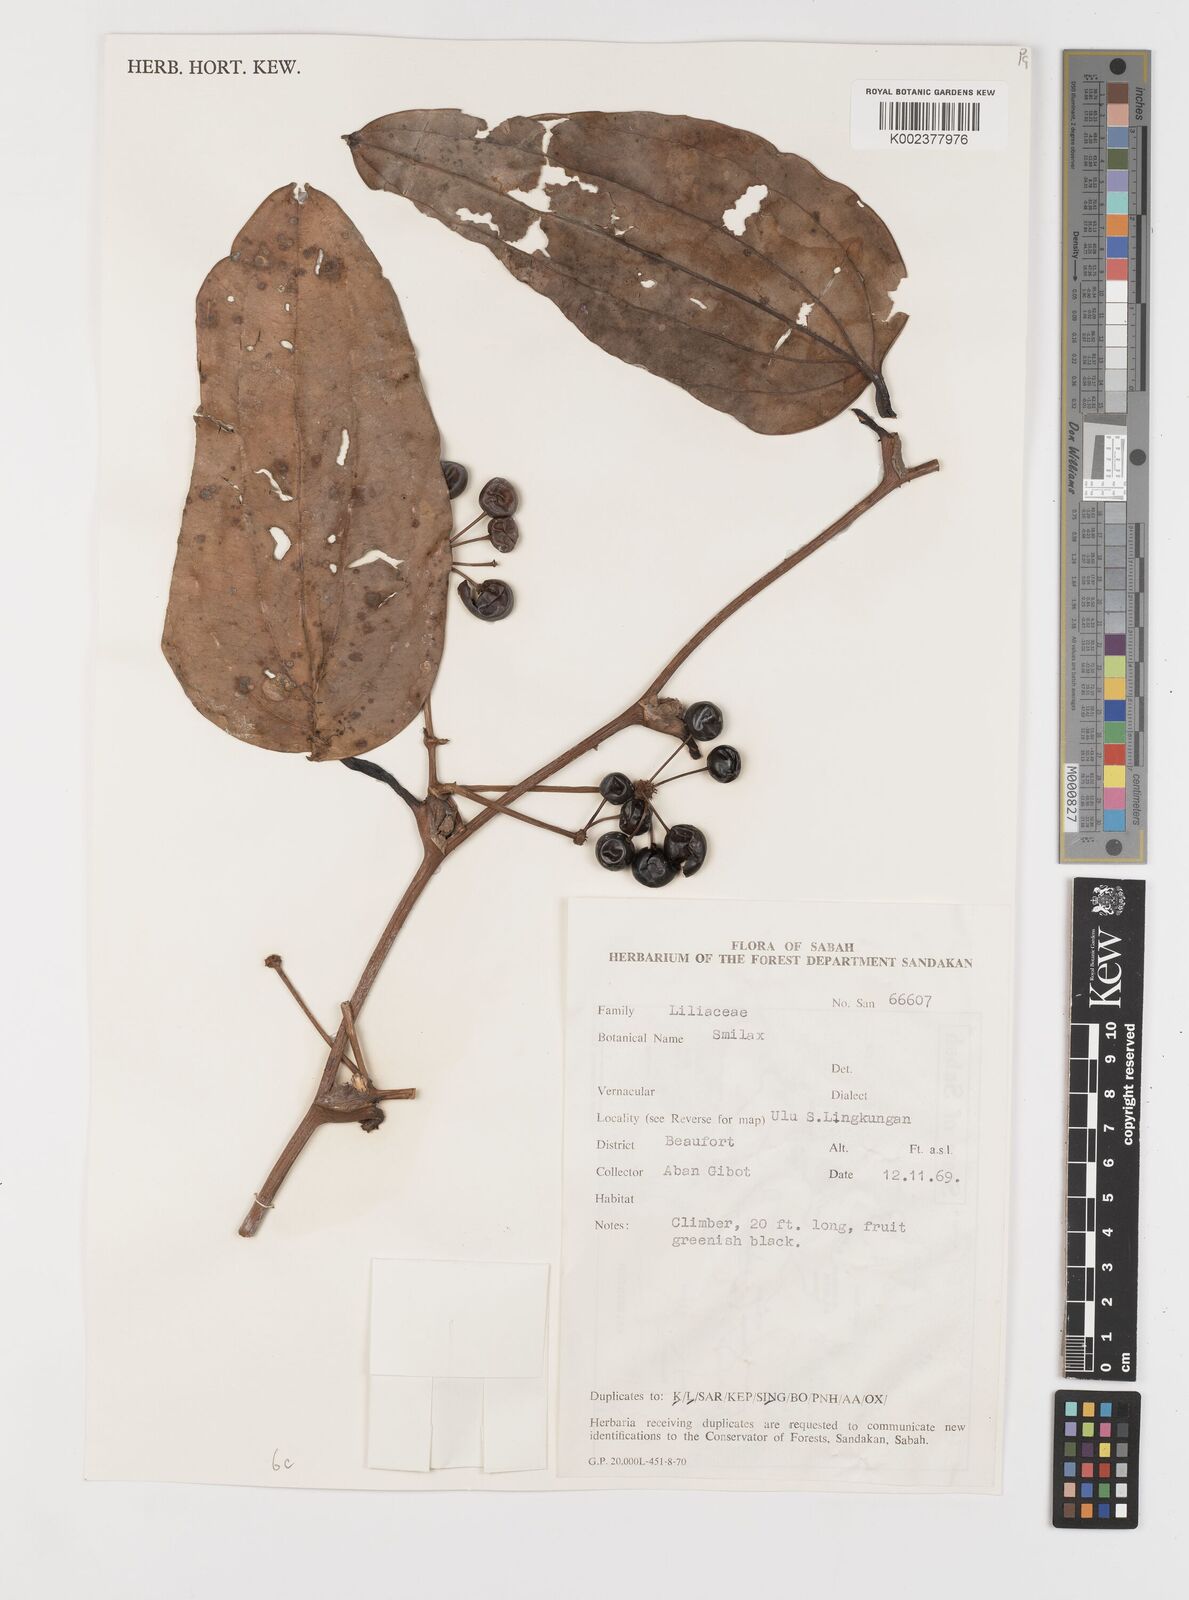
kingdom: Plantae
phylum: Tracheophyta
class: Liliopsida
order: Liliales
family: Smilacaceae
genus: Smilax
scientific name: Smilax
